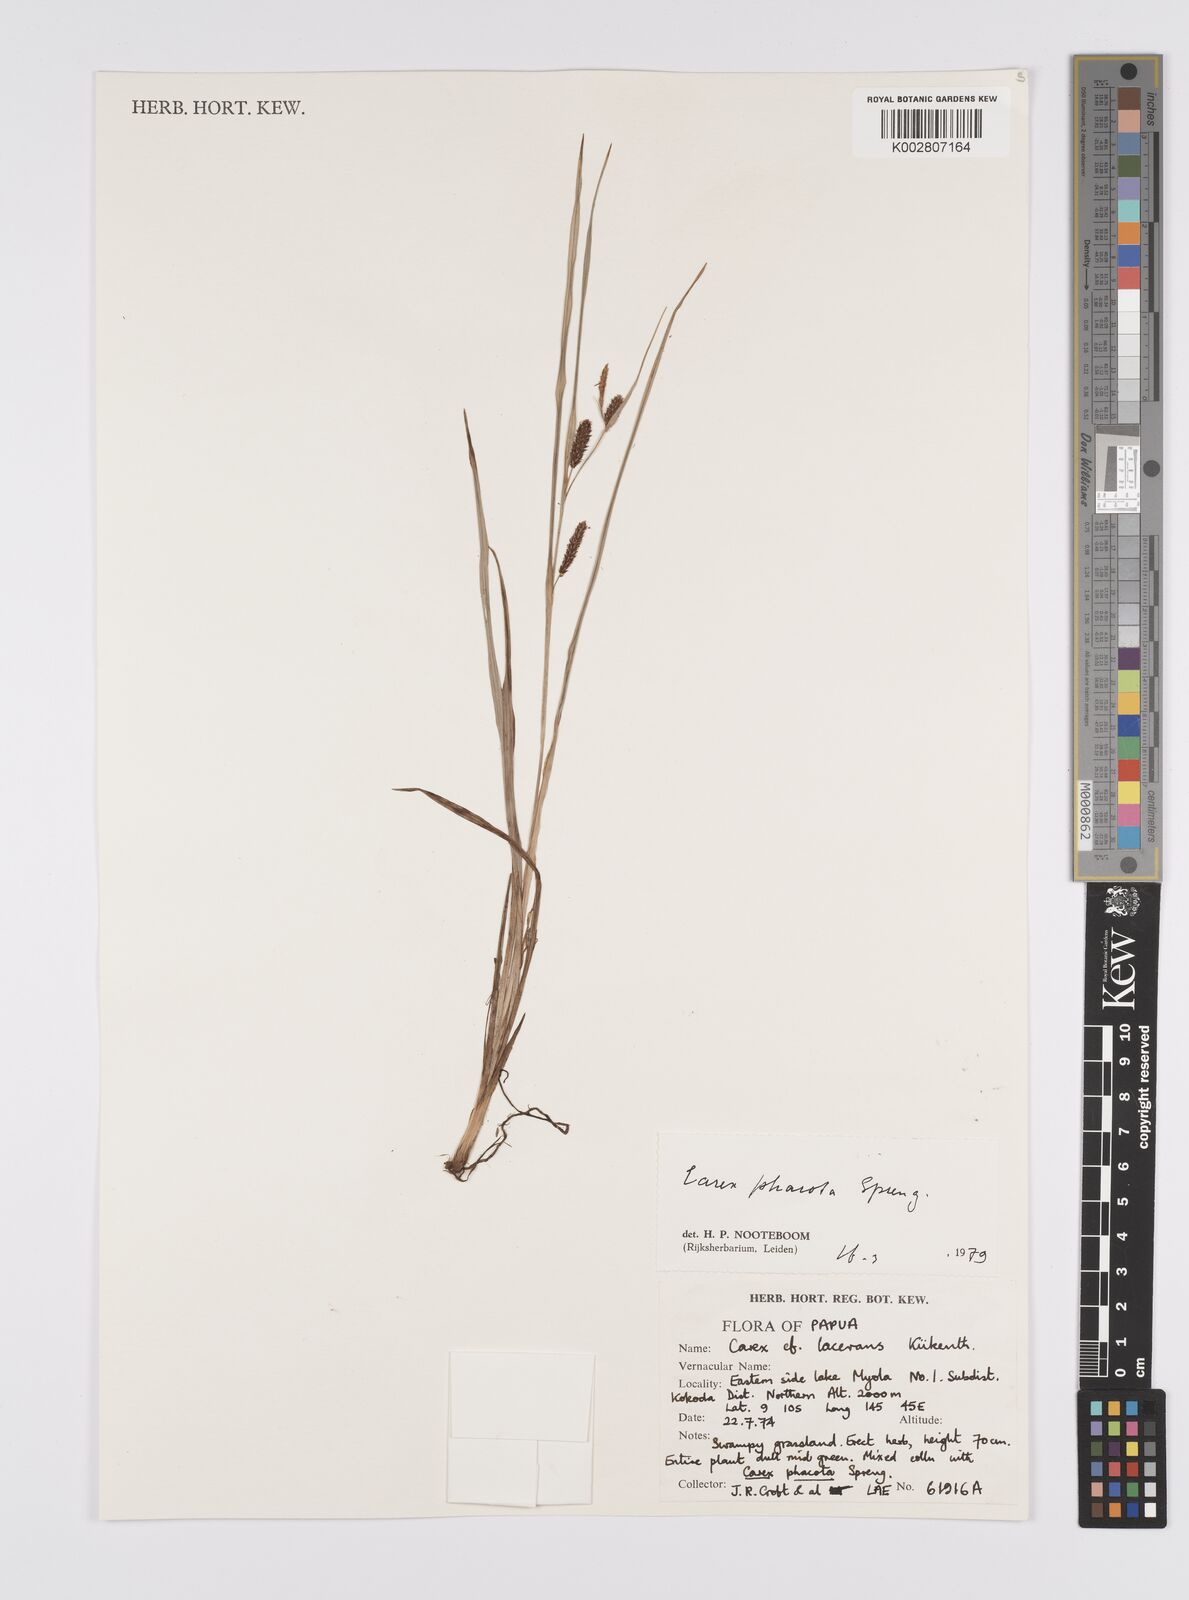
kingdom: Plantae
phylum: Tracheophyta
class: Liliopsida
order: Poales
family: Cyperaceae
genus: Carex
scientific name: Carex phacota
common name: Lakeshore sedge
